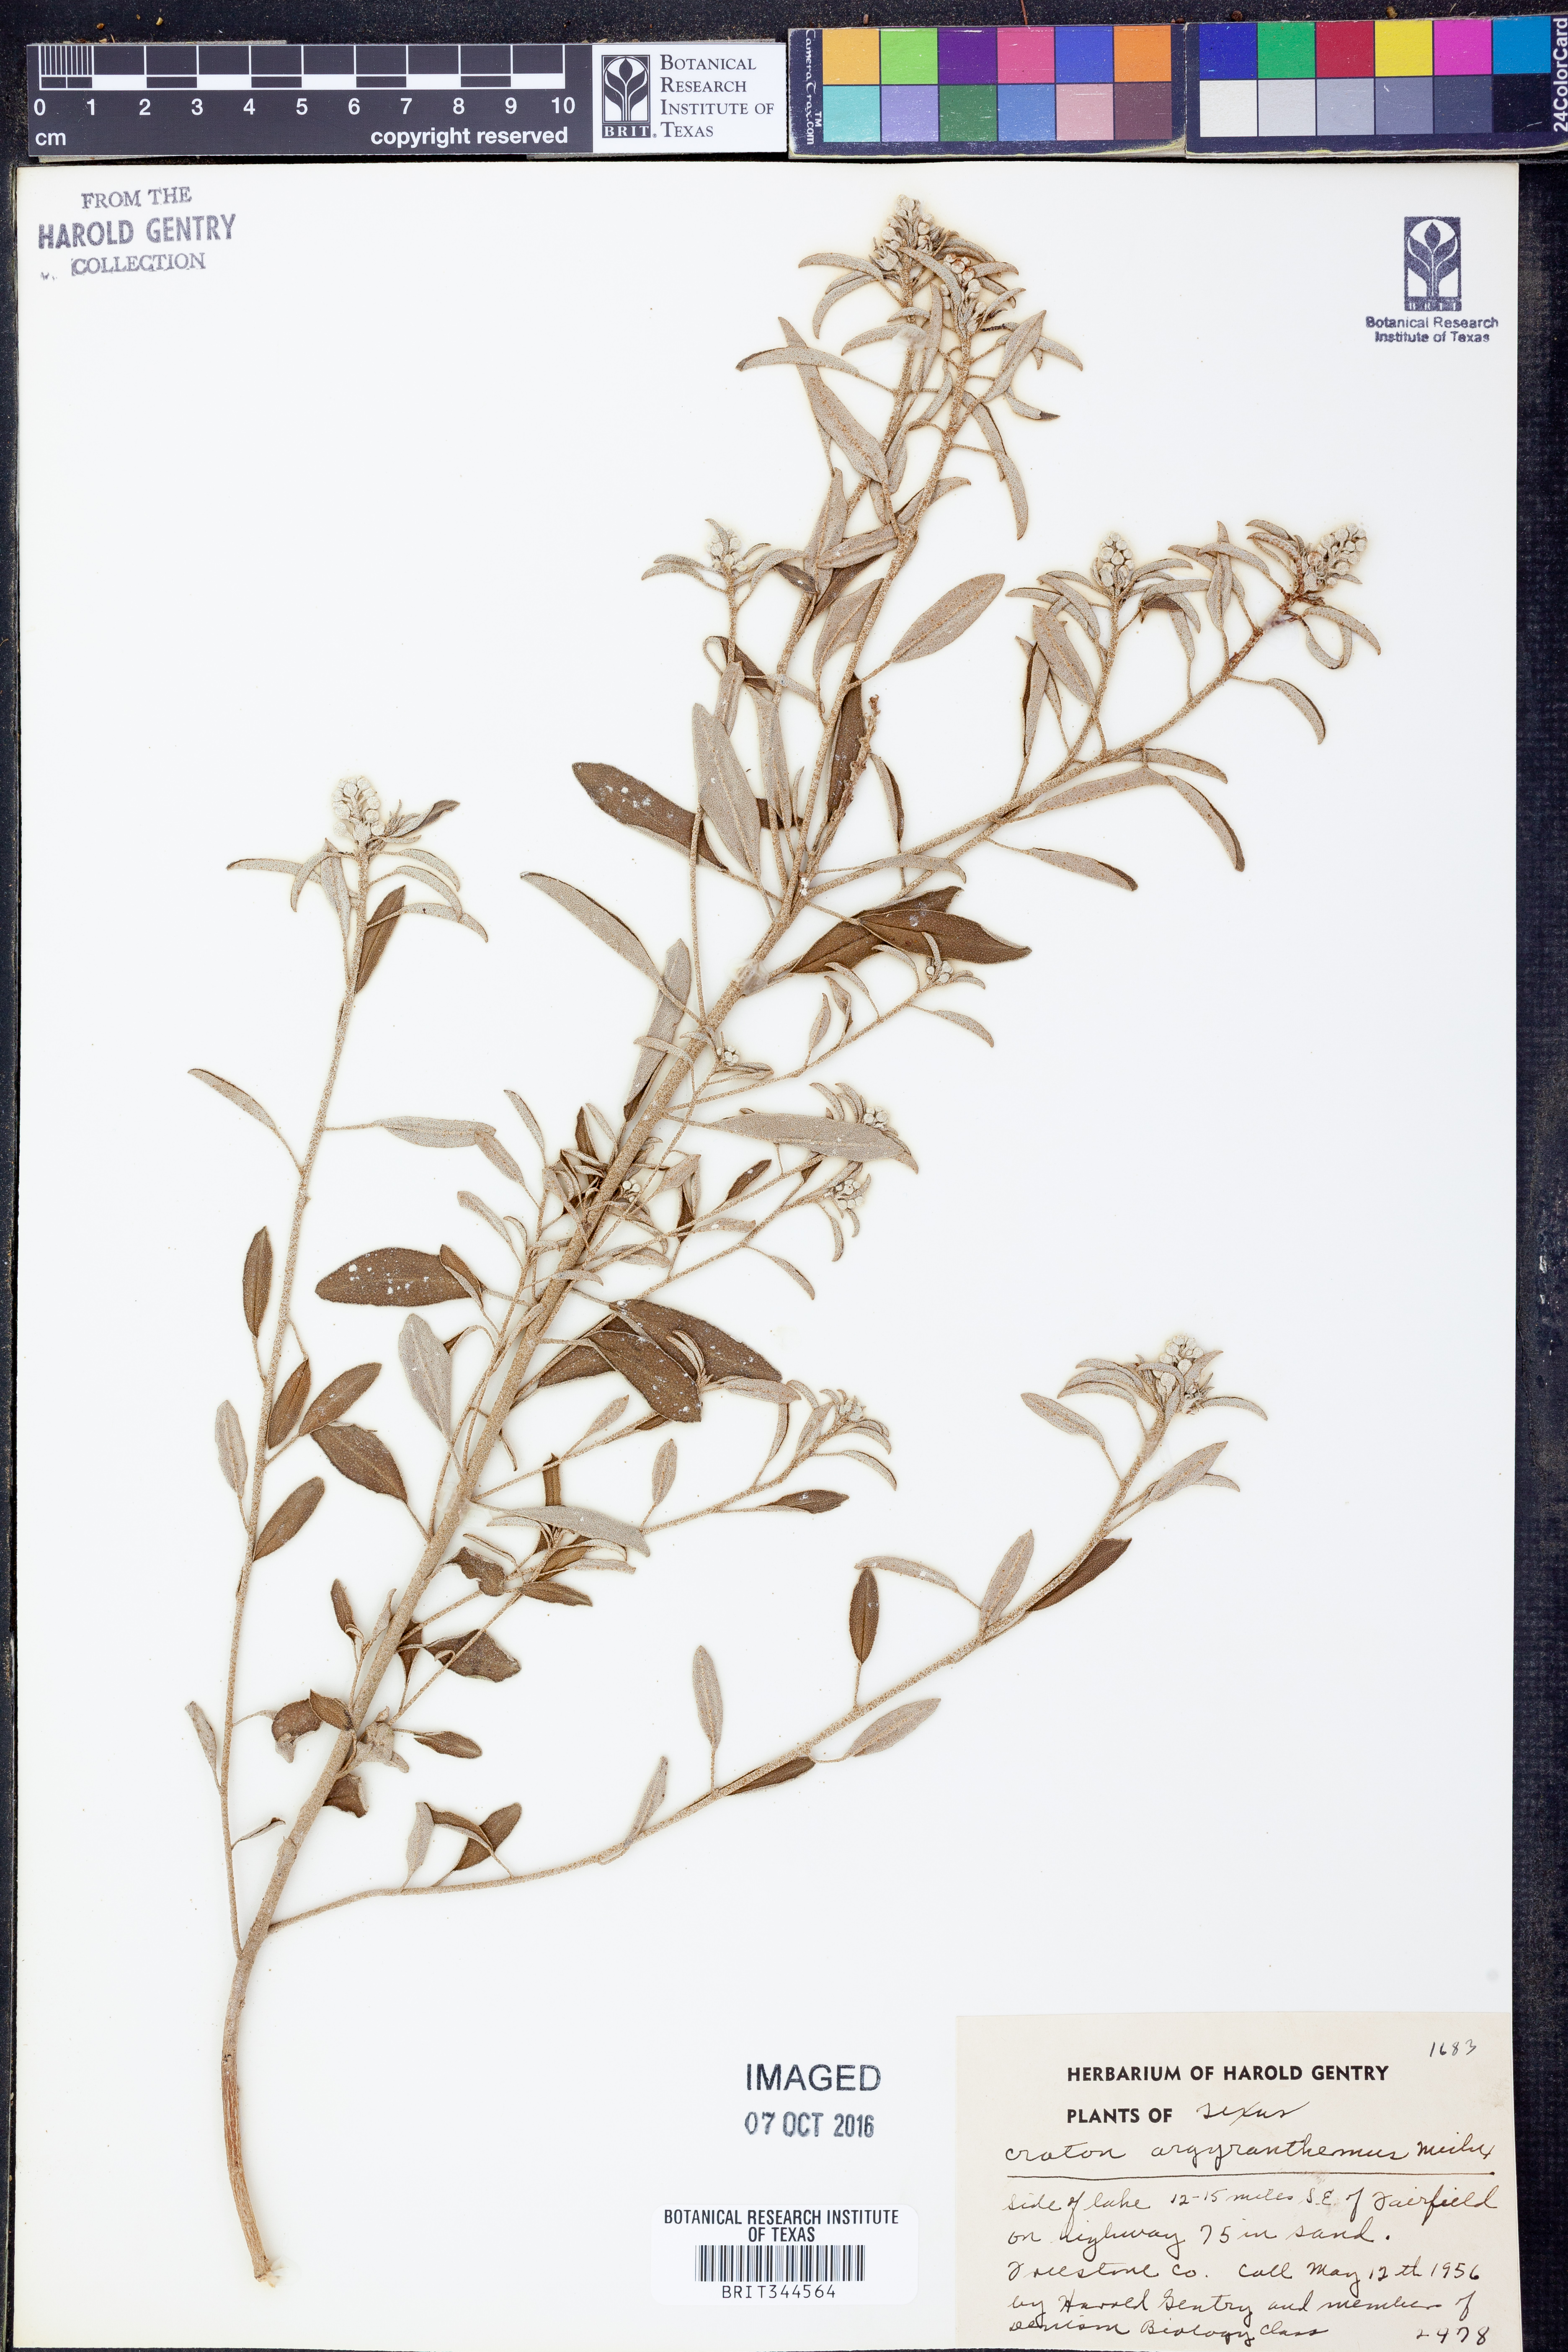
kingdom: Plantae
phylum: Tracheophyta
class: Magnoliopsida
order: Malpighiales
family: Euphorbiaceae
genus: Croton
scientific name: Croton argyranthemus
